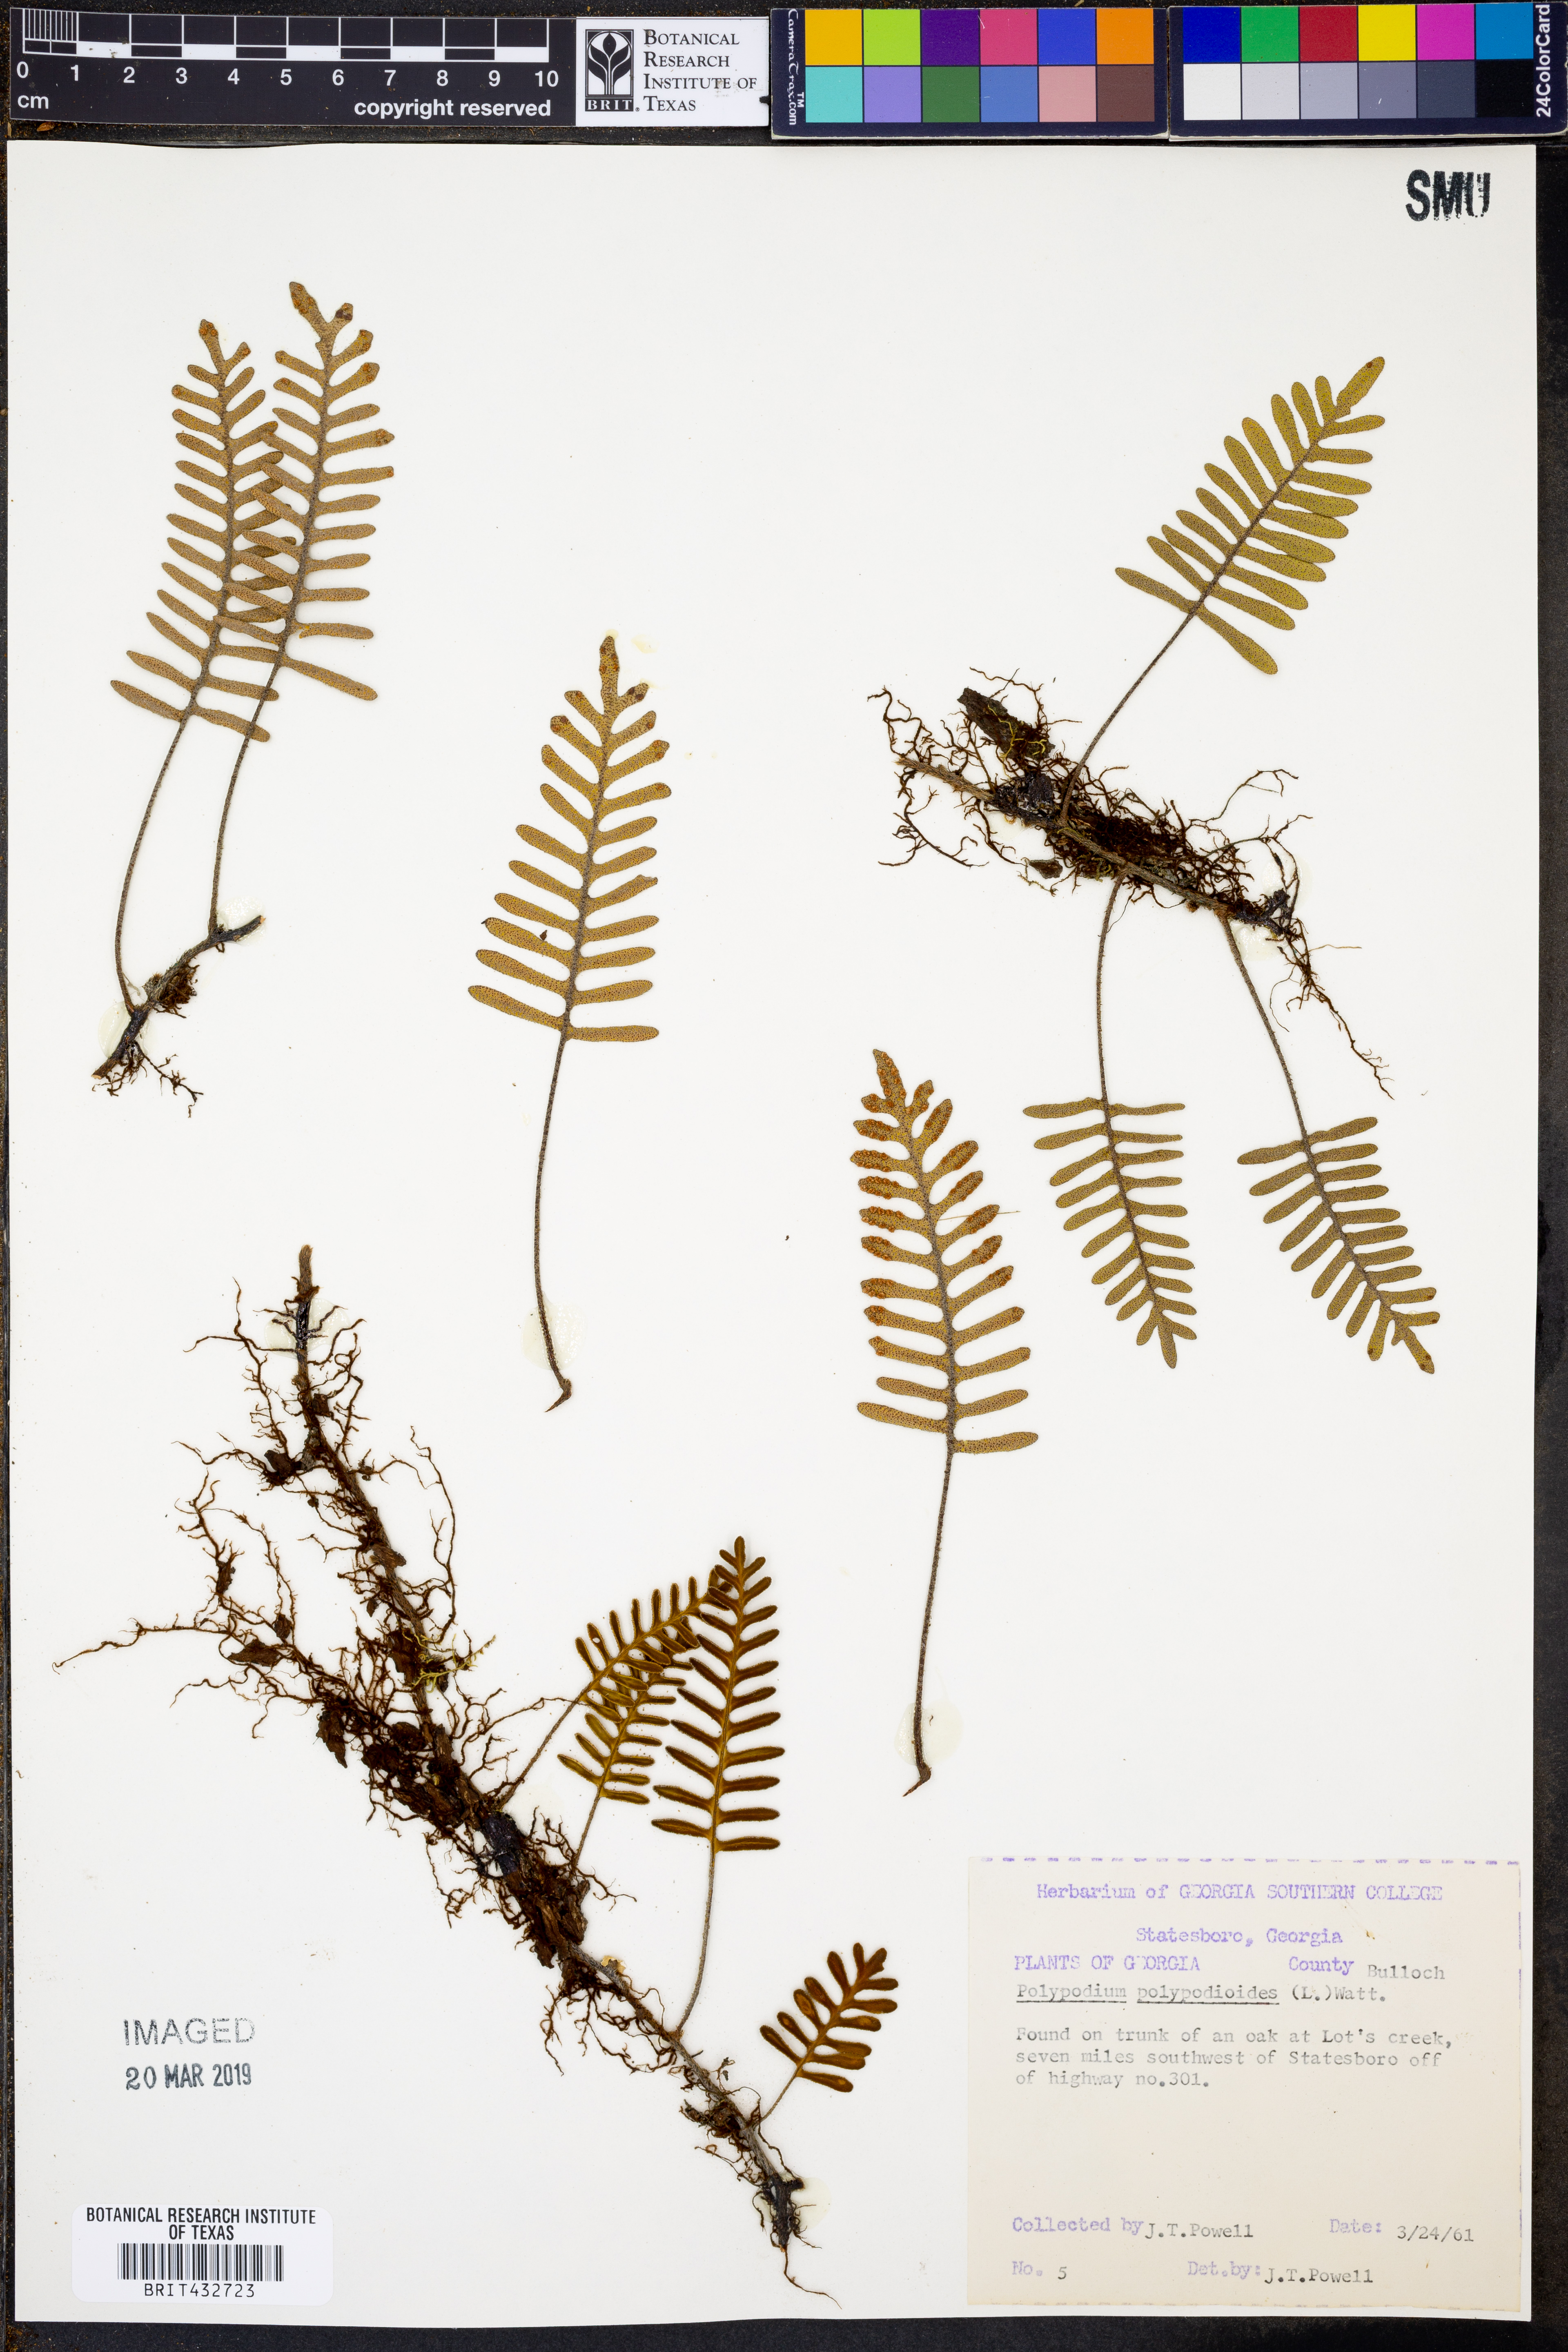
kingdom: Plantae
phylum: Tracheophyta
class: Polypodiopsida
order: Polypodiales
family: Polypodiaceae
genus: Pleopeltis
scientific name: Pleopeltis polypodioides
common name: Resurrection fern
